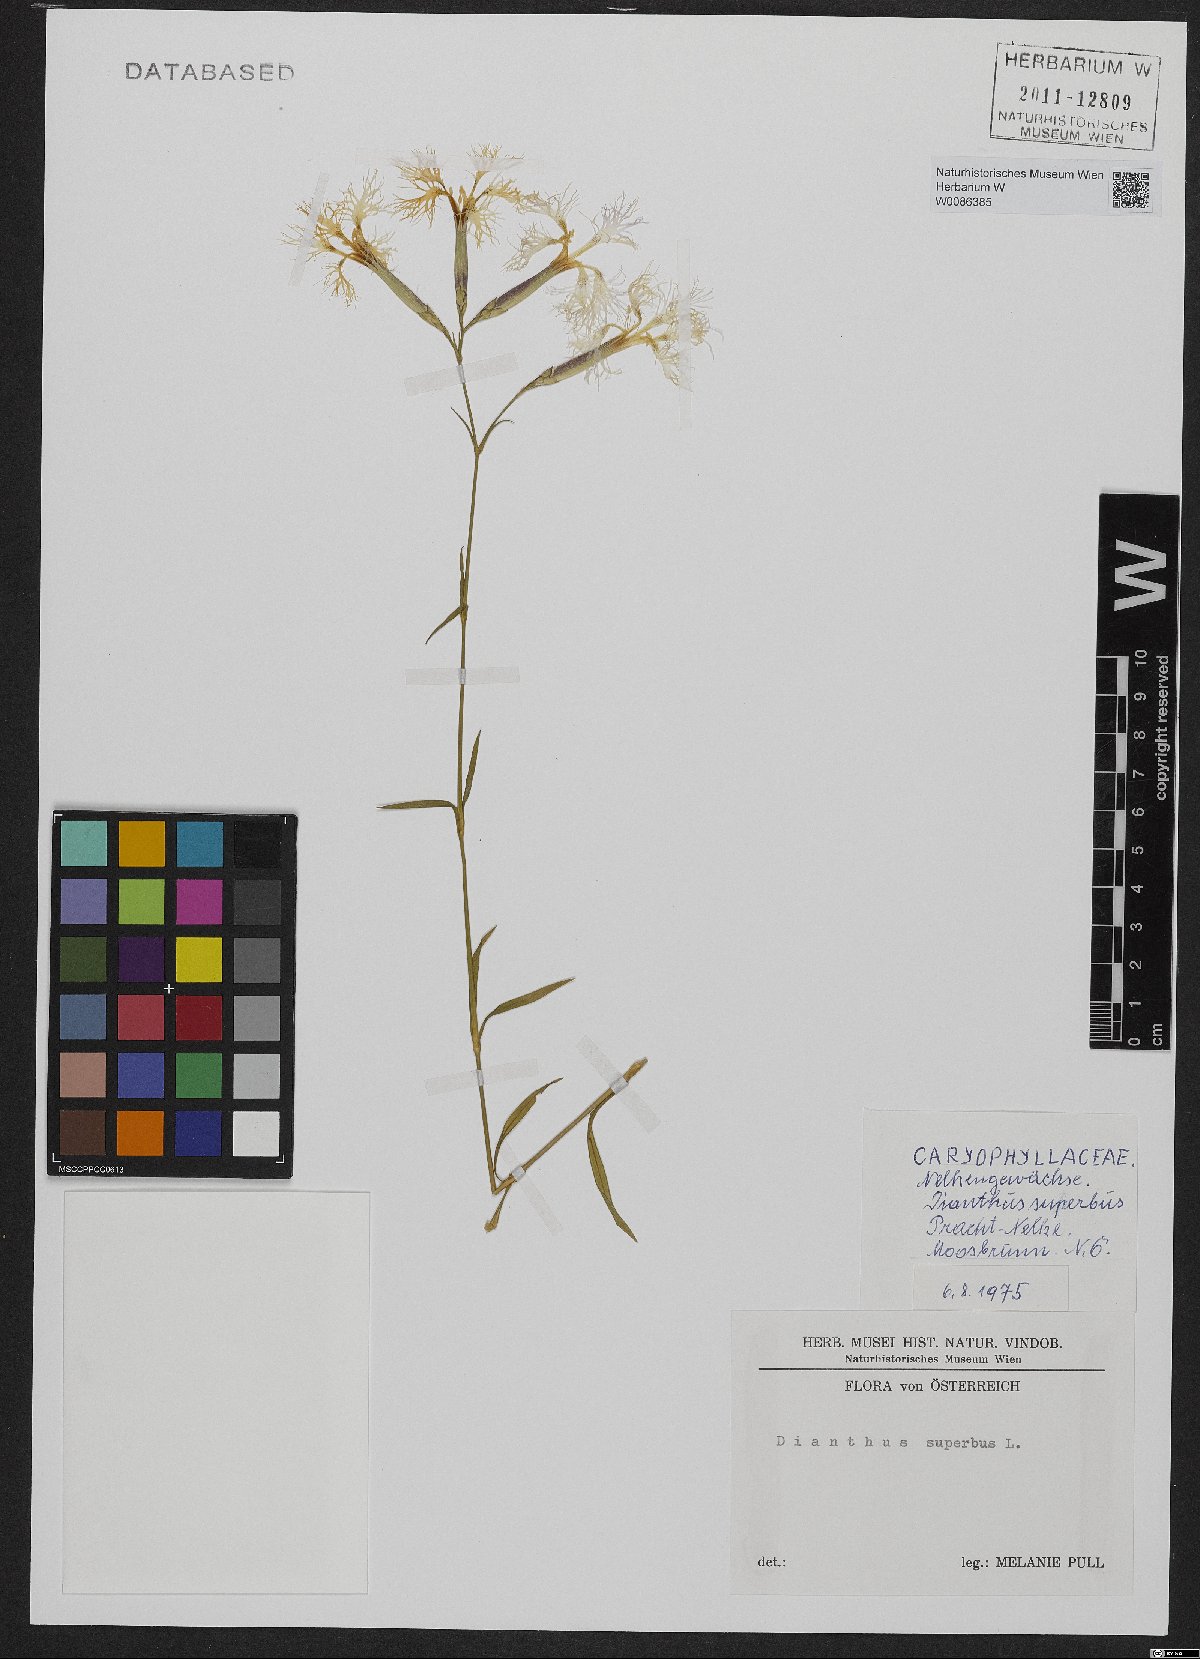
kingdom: Plantae
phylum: Tracheophyta
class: Magnoliopsida
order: Caryophyllales
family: Caryophyllaceae
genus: Dianthus
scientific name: Dianthus superbus
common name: Fringed pink
